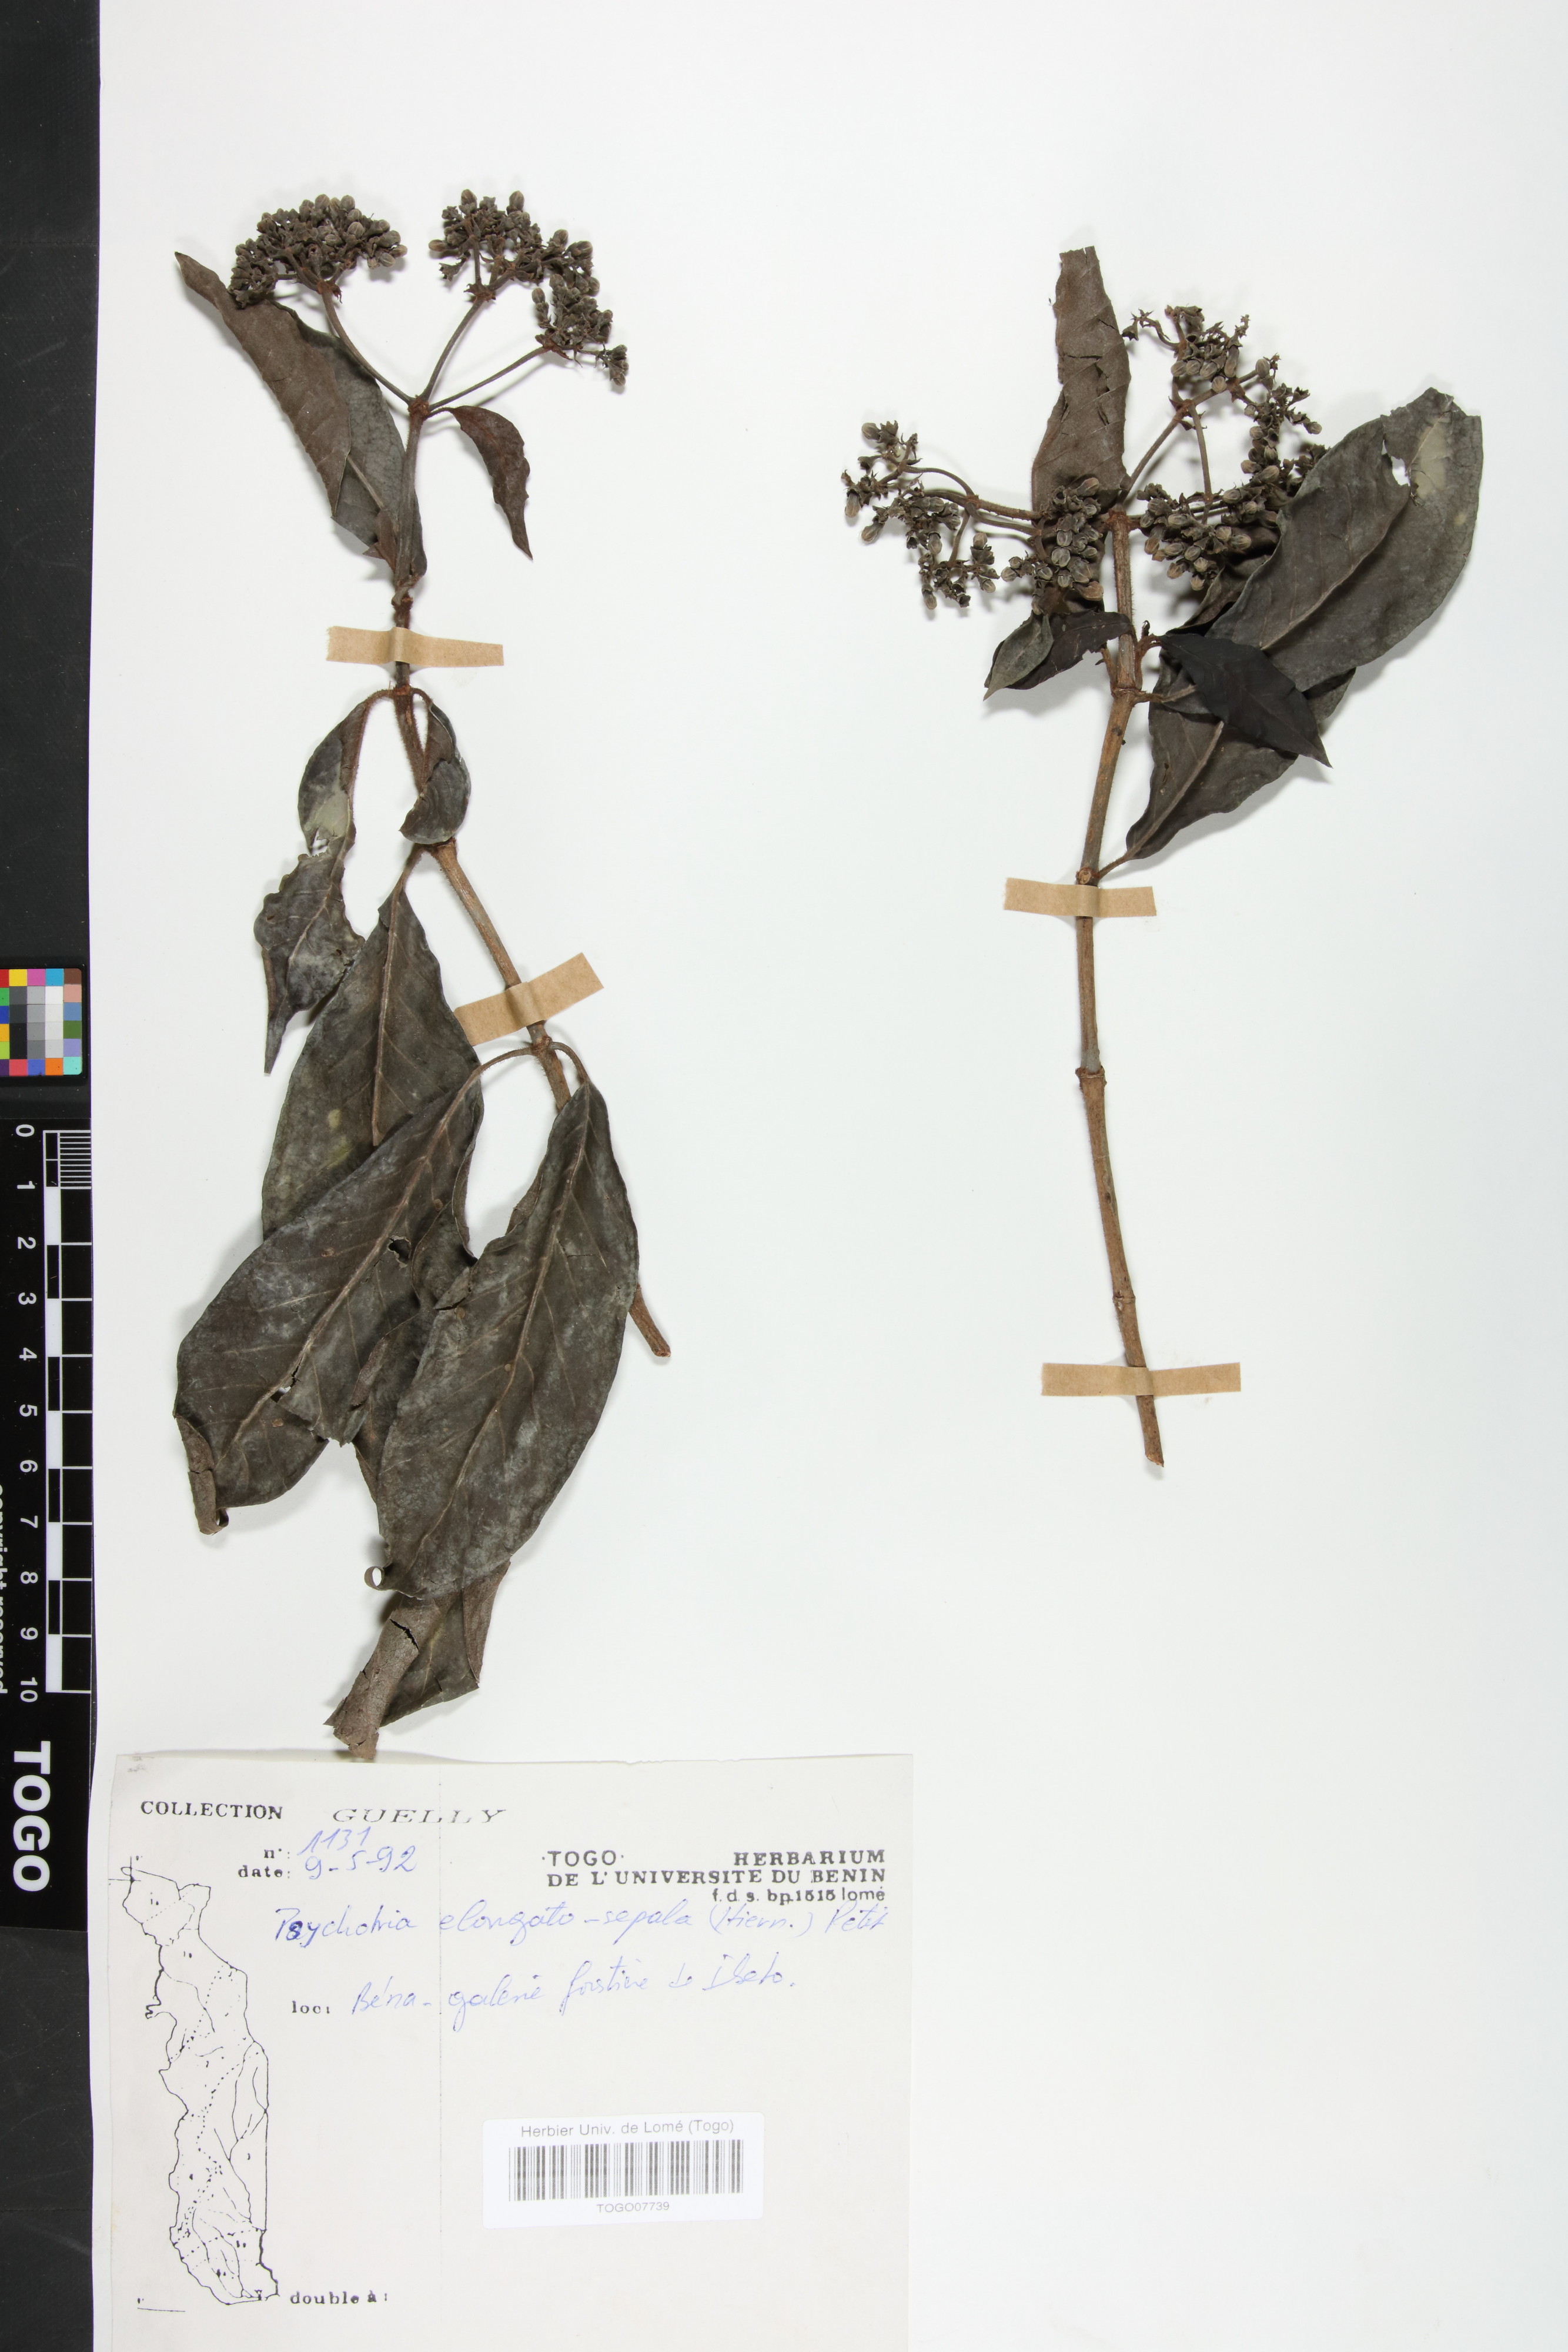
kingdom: Plantae
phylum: Tracheophyta
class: Magnoliopsida
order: Gentianales
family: Rubiaceae
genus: Psychotria
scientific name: Psychotria elongatosepala
